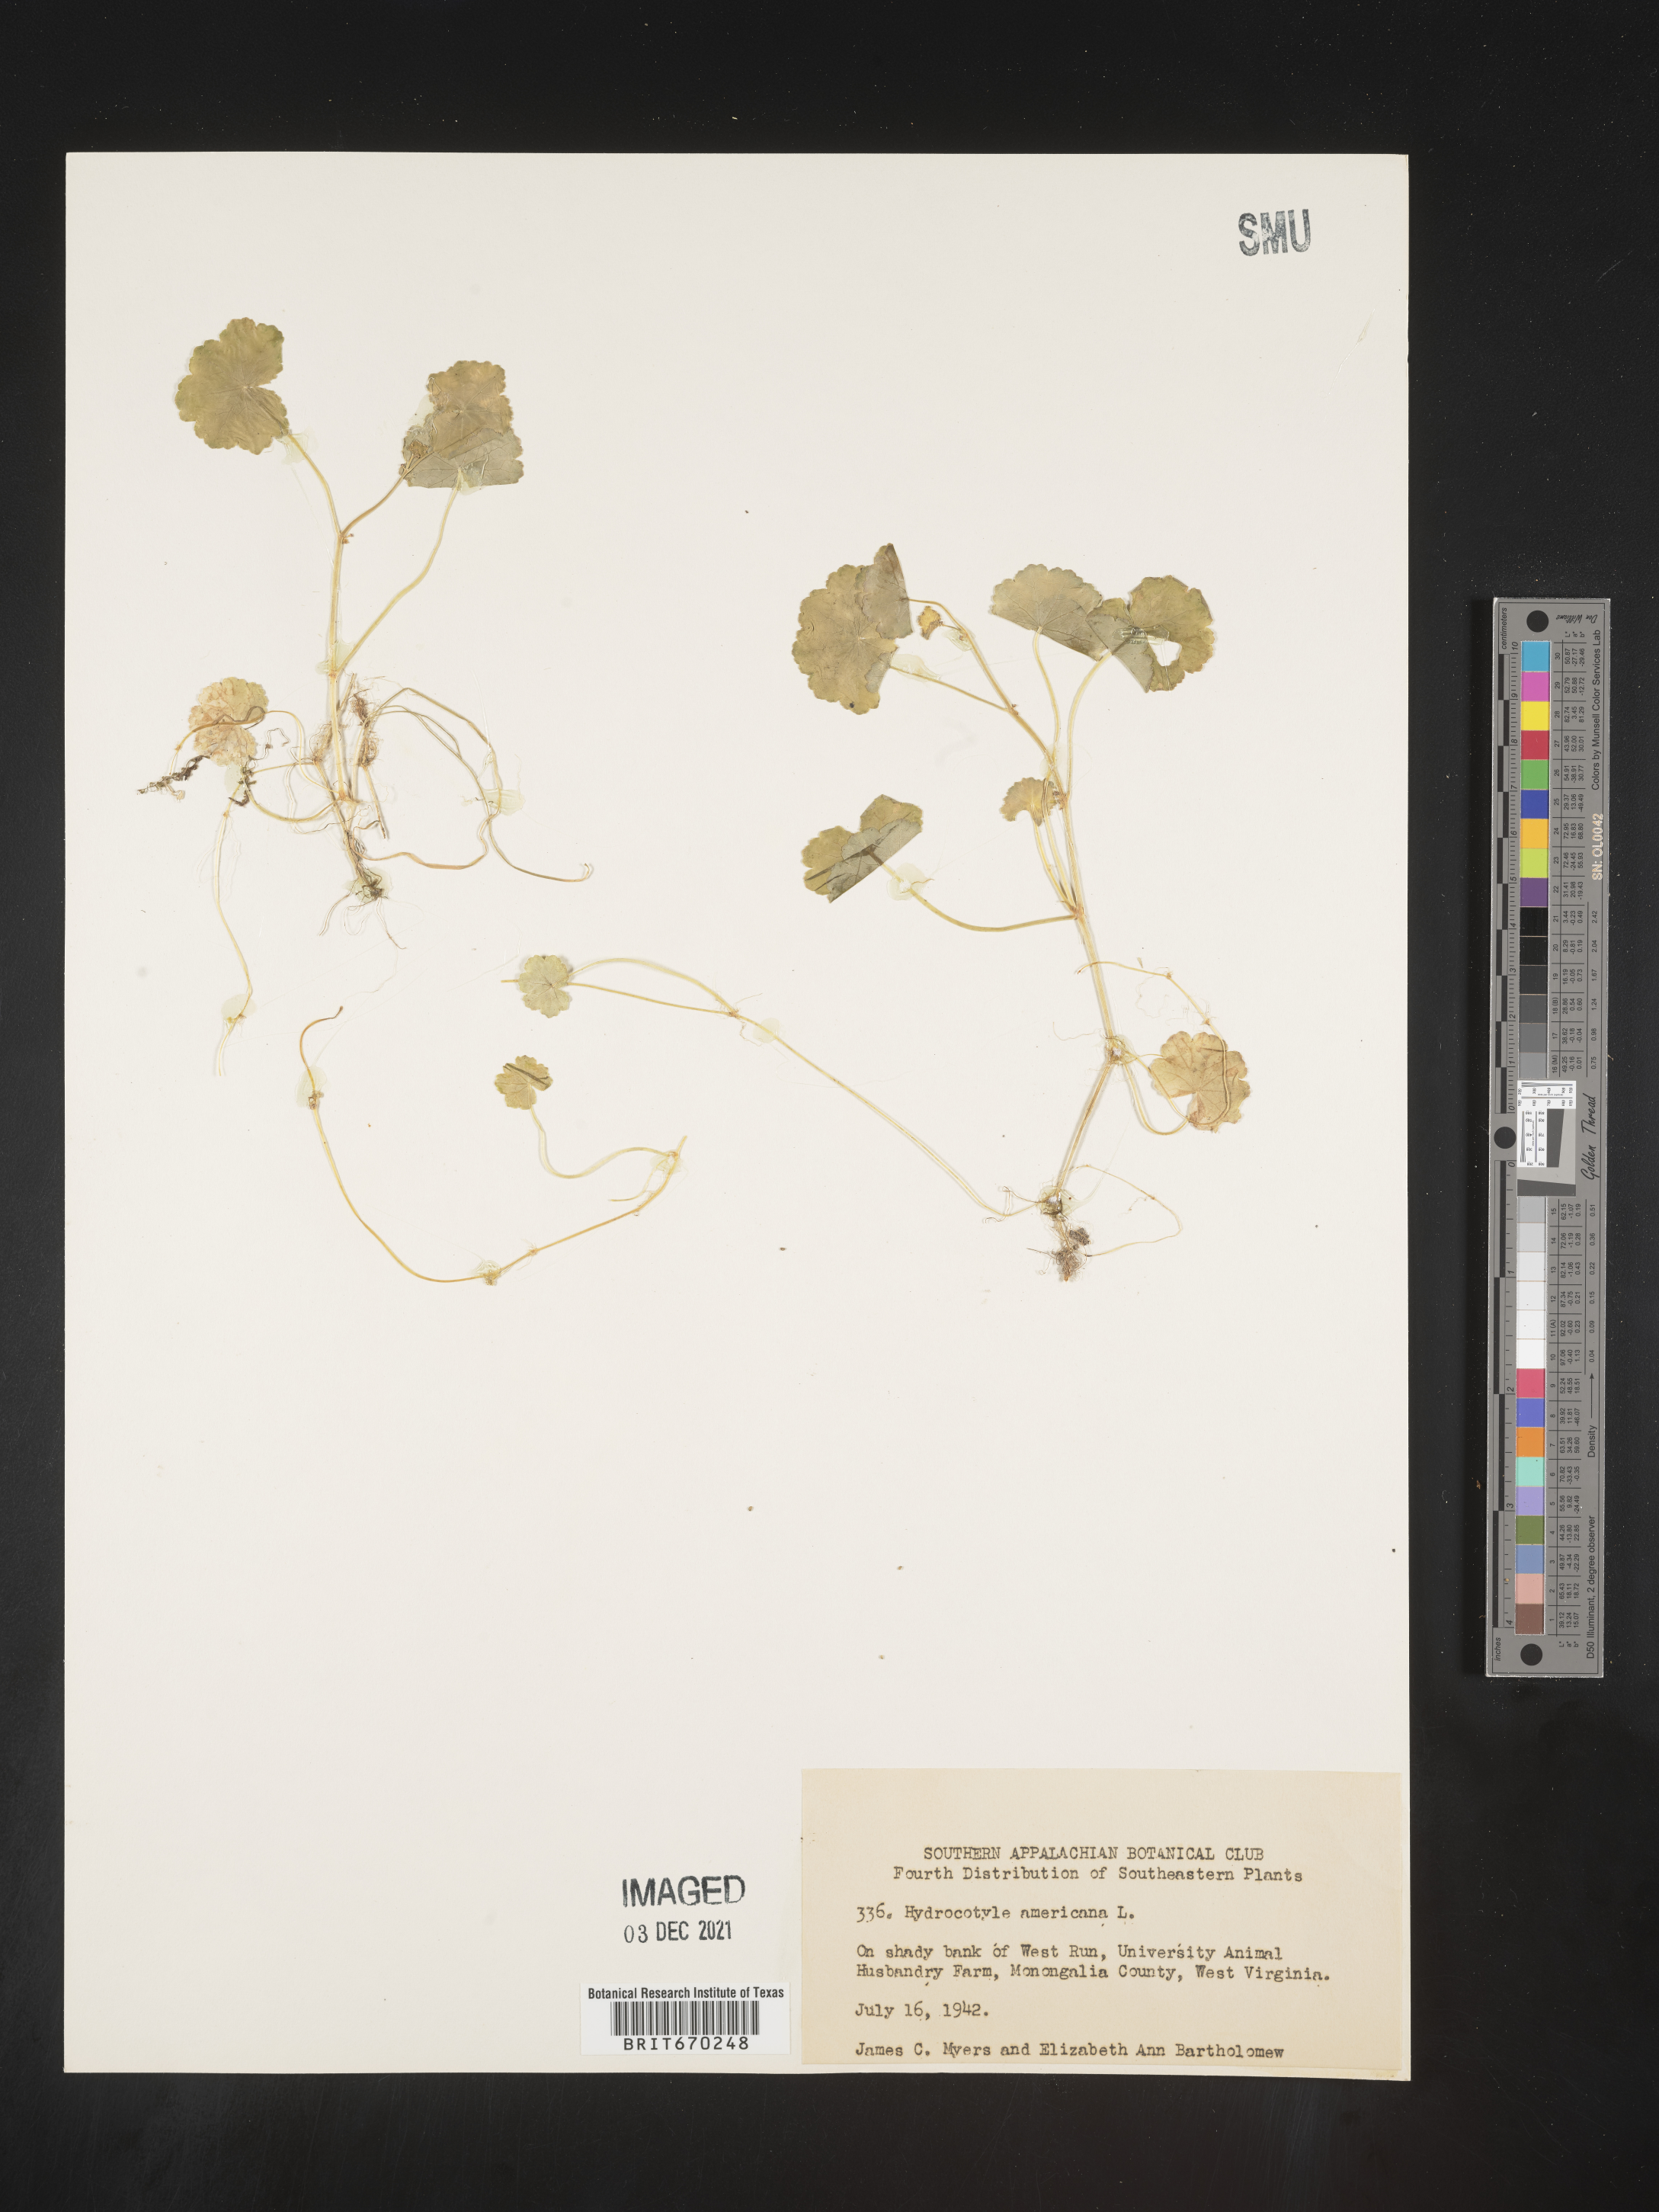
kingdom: Plantae
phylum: Tracheophyta
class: Magnoliopsida
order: Apiales
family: Araliaceae
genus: Hydrocotyle
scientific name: Hydrocotyle
